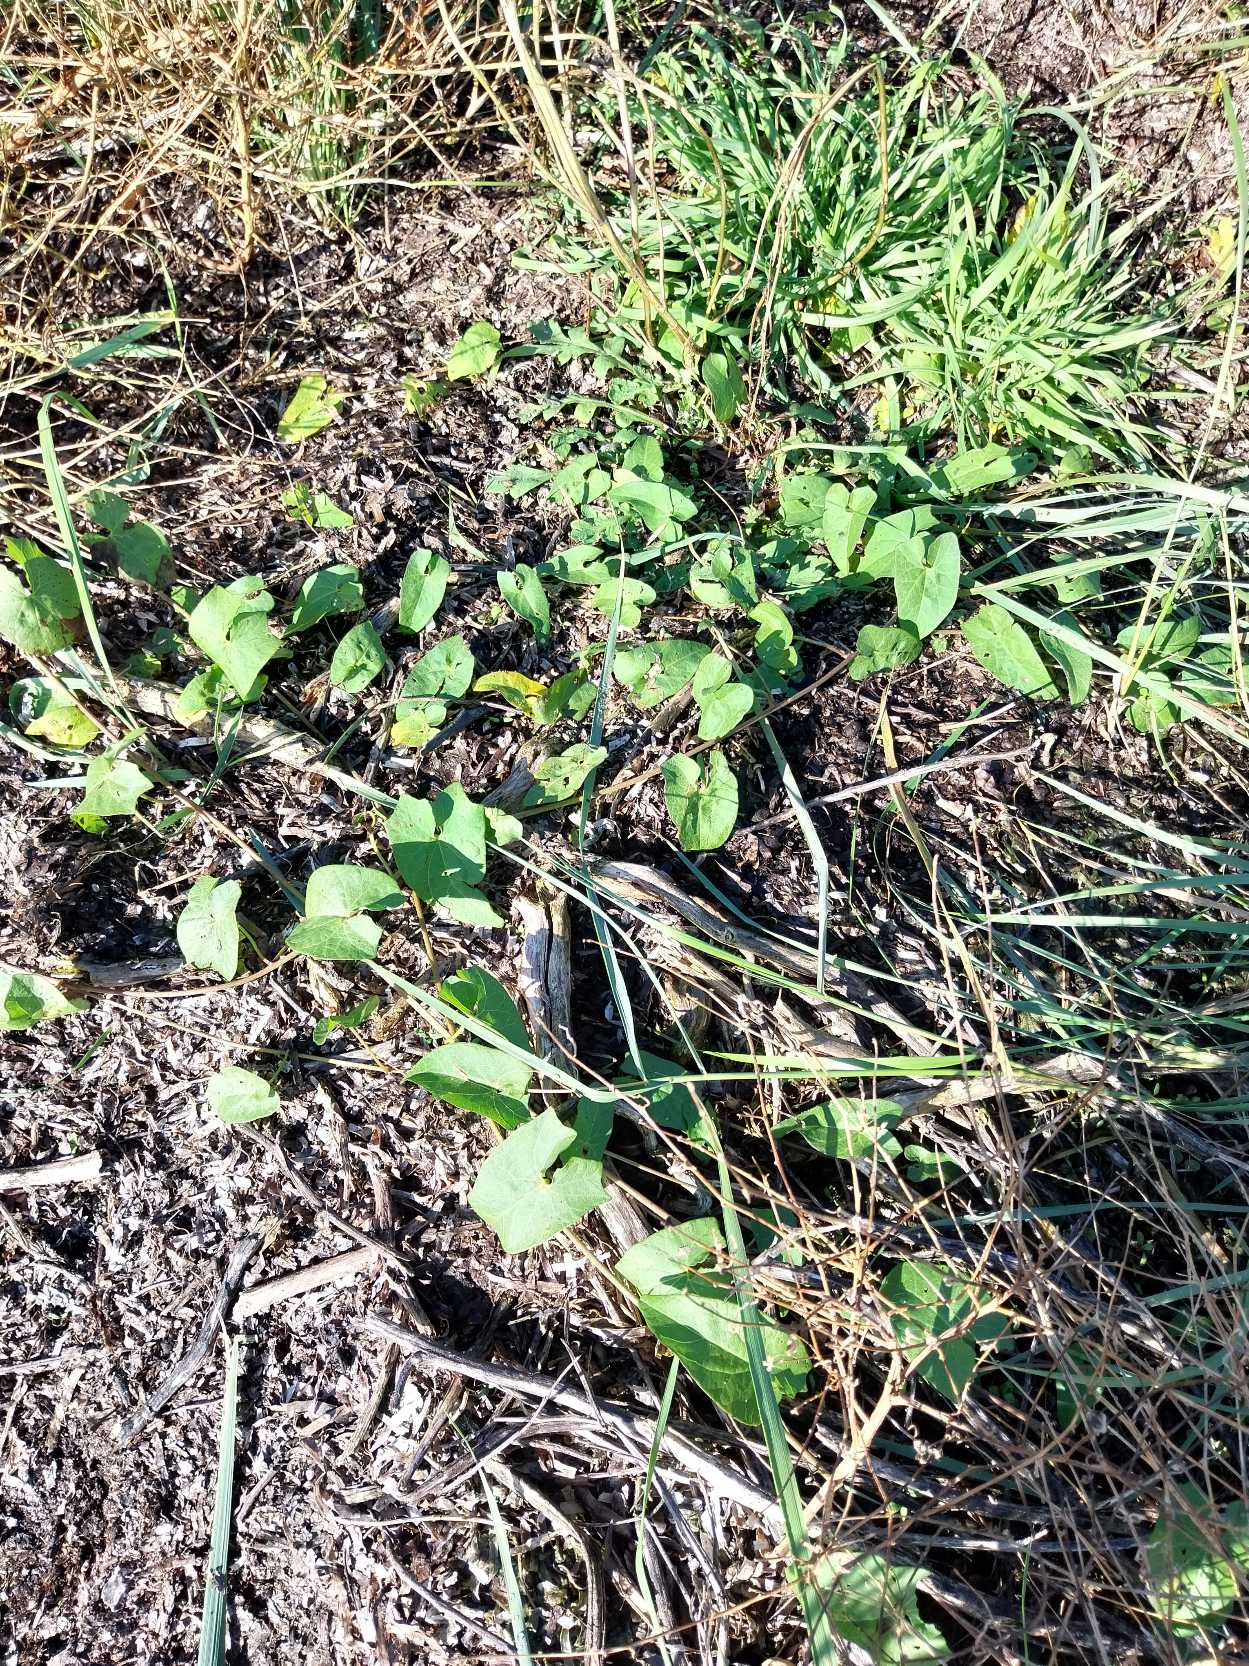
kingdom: Plantae
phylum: Tracheophyta
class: Magnoliopsida
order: Solanales
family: Convolvulaceae
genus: Calystegia
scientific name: Calystegia sepium
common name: Gærde-snerle
